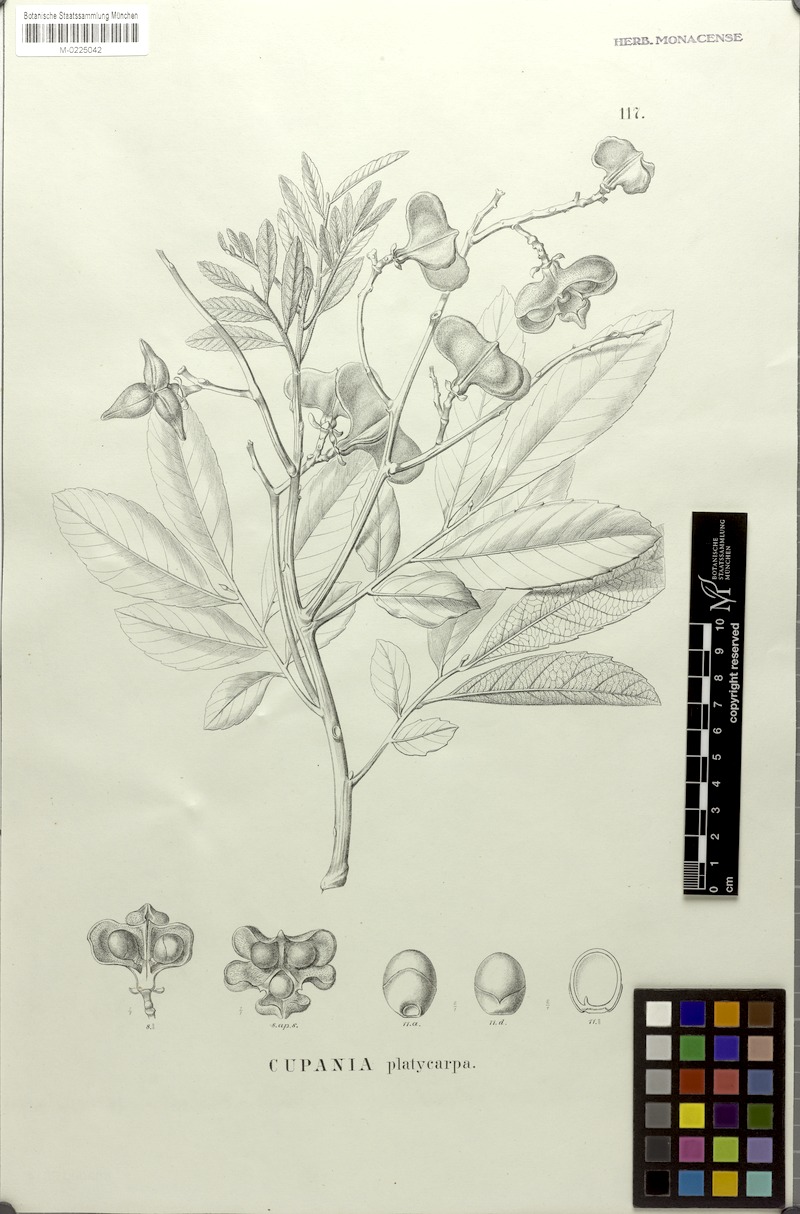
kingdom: Plantae
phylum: Tracheophyta
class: Magnoliopsida
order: Sapindales
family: Sapindaceae
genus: Cupania
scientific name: Cupania platycarpa
